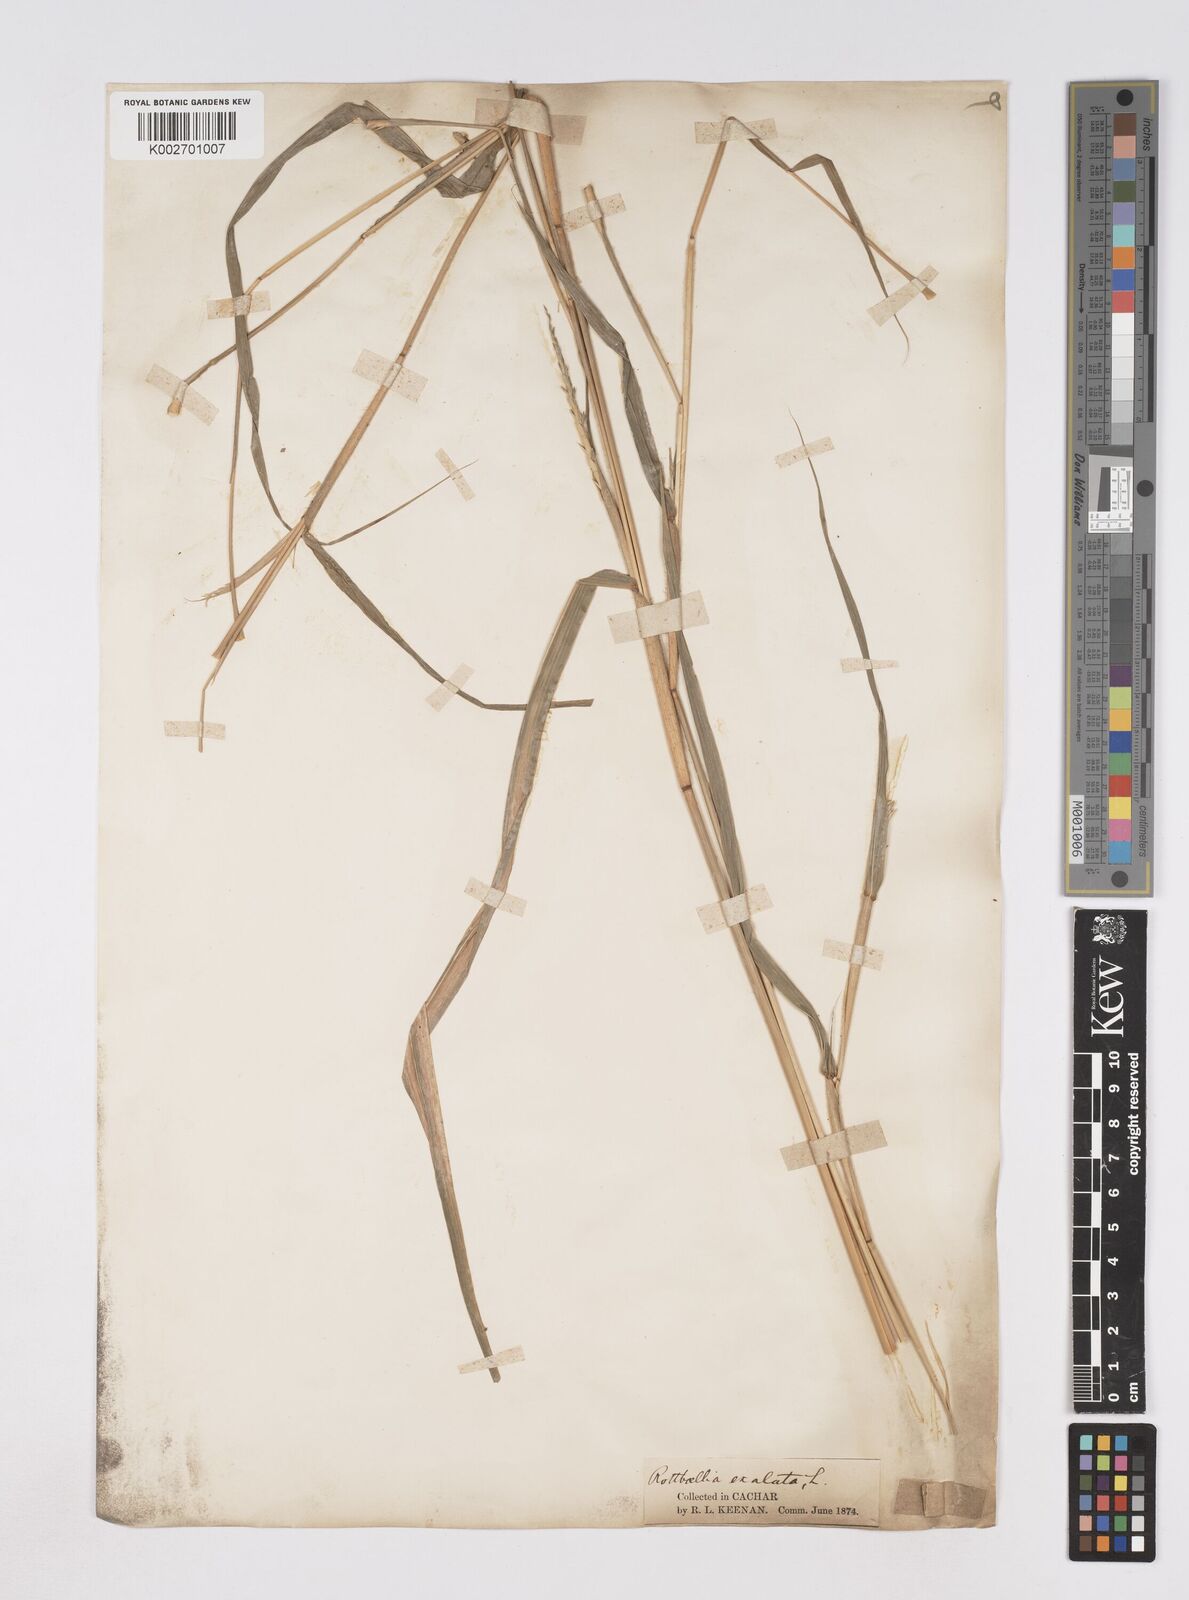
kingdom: Plantae
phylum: Tracheophyta
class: Liliopsida
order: Poales
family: Poaceae
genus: Ophiuros
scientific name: Ophiuros exaltatus
